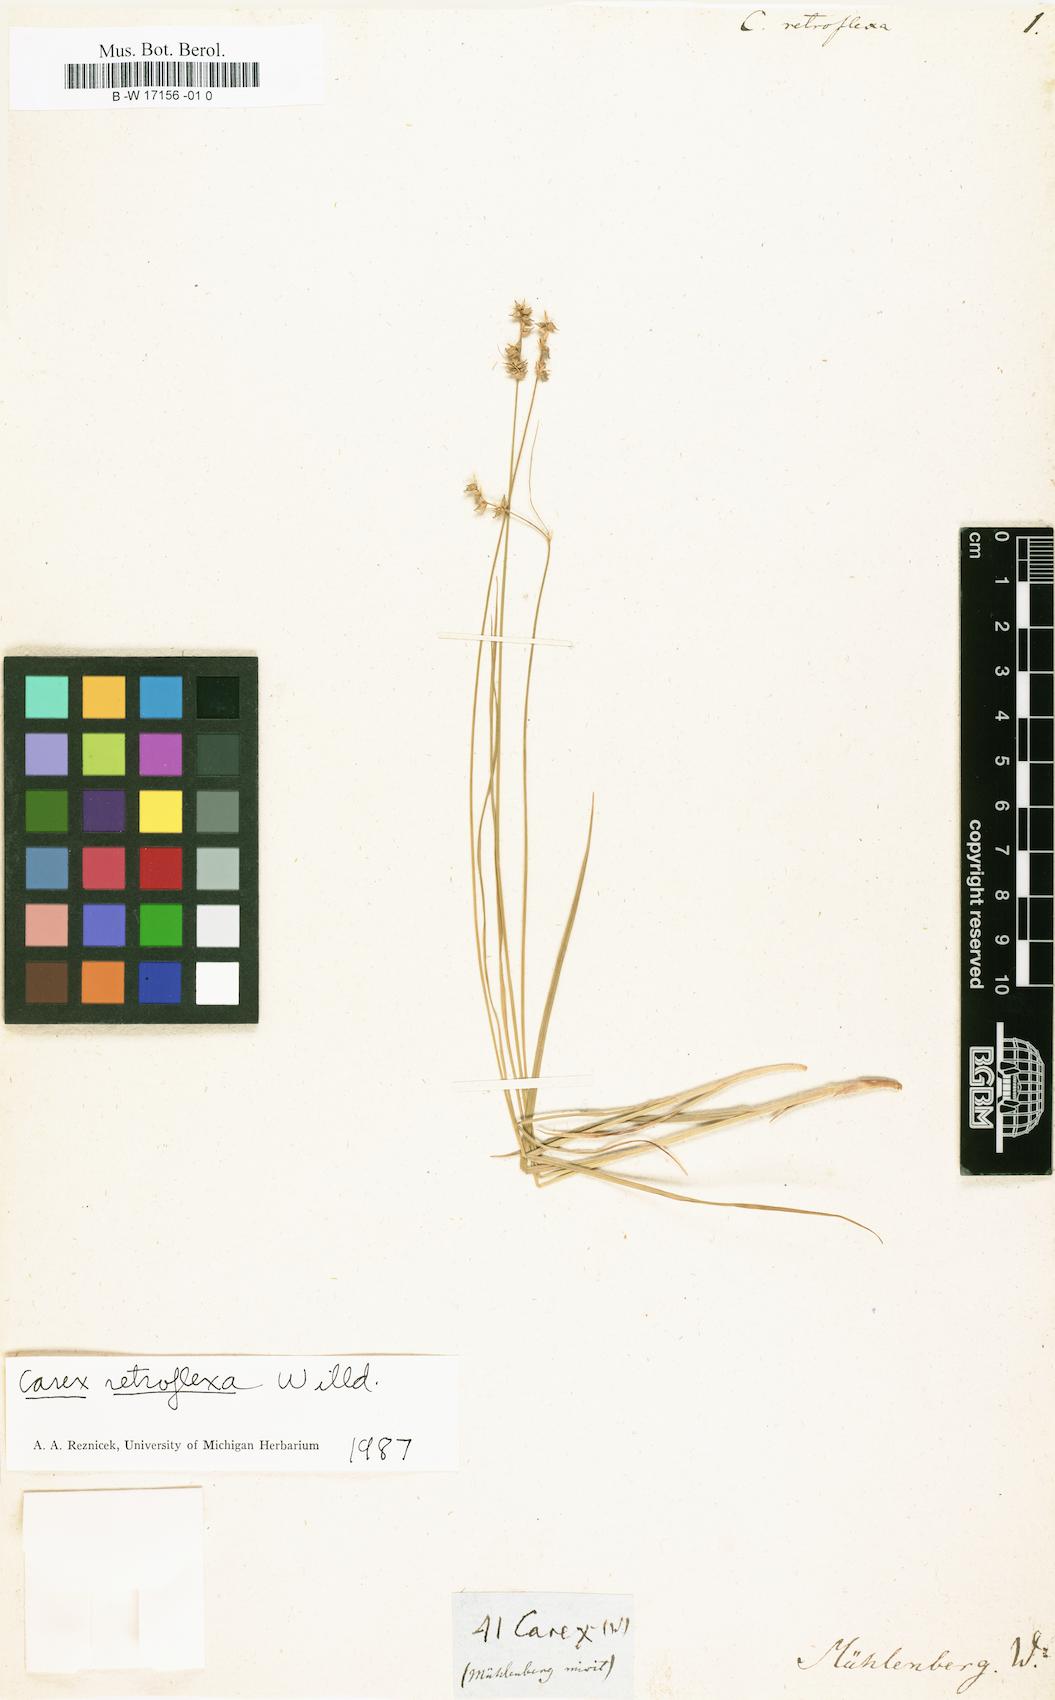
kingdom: Plantae
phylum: Tracheophyta
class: Liliopsida
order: Poales
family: Cyperaceae
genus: Carex
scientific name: Carex retroflexa
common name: Reflexed sedge
